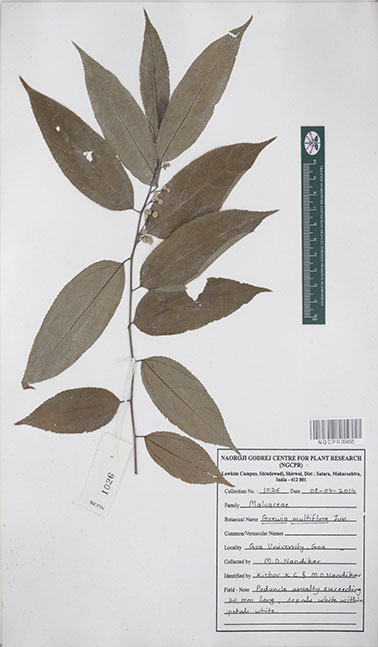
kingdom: Plantae
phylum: Tracheophyta
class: Magnoliopsida
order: Malvales
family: Malvaceae
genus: Grewia
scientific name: Grewia multiflora
